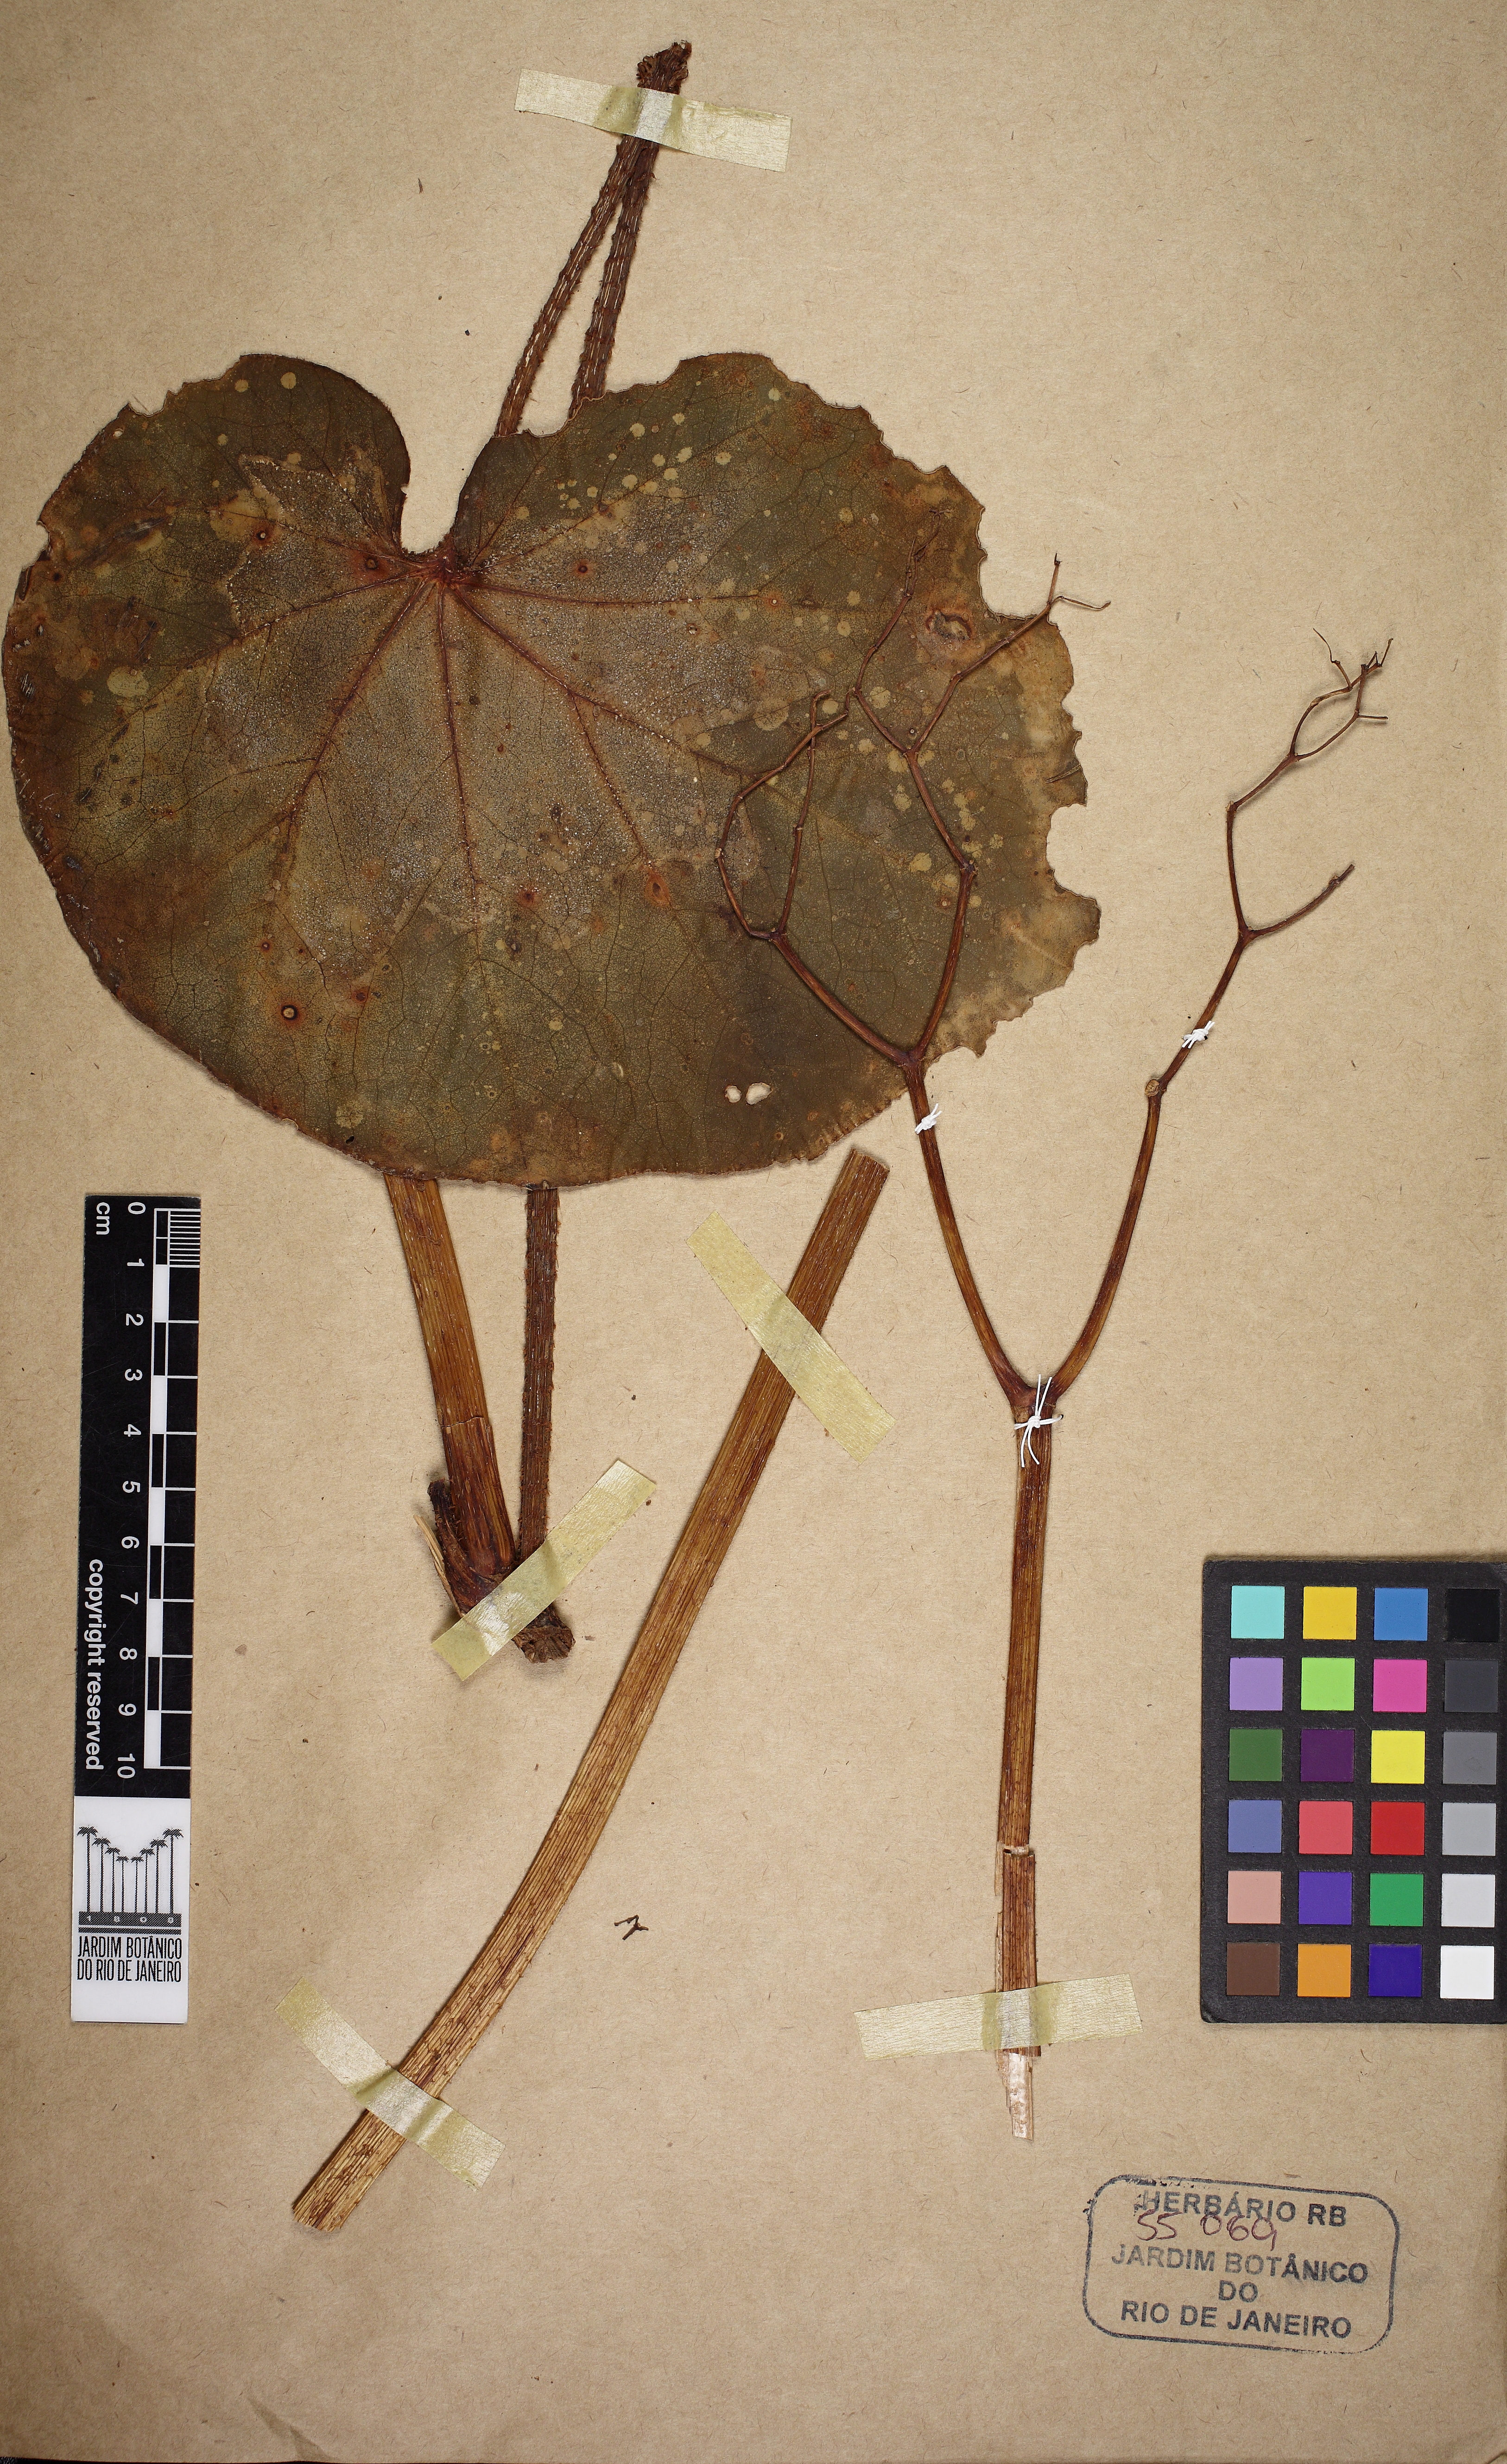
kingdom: Plantae
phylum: Tracheophyta
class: Magnoliopsida
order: Cucurbitales
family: Begoniaceae
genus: Begonia
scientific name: Begonia ramentacea
